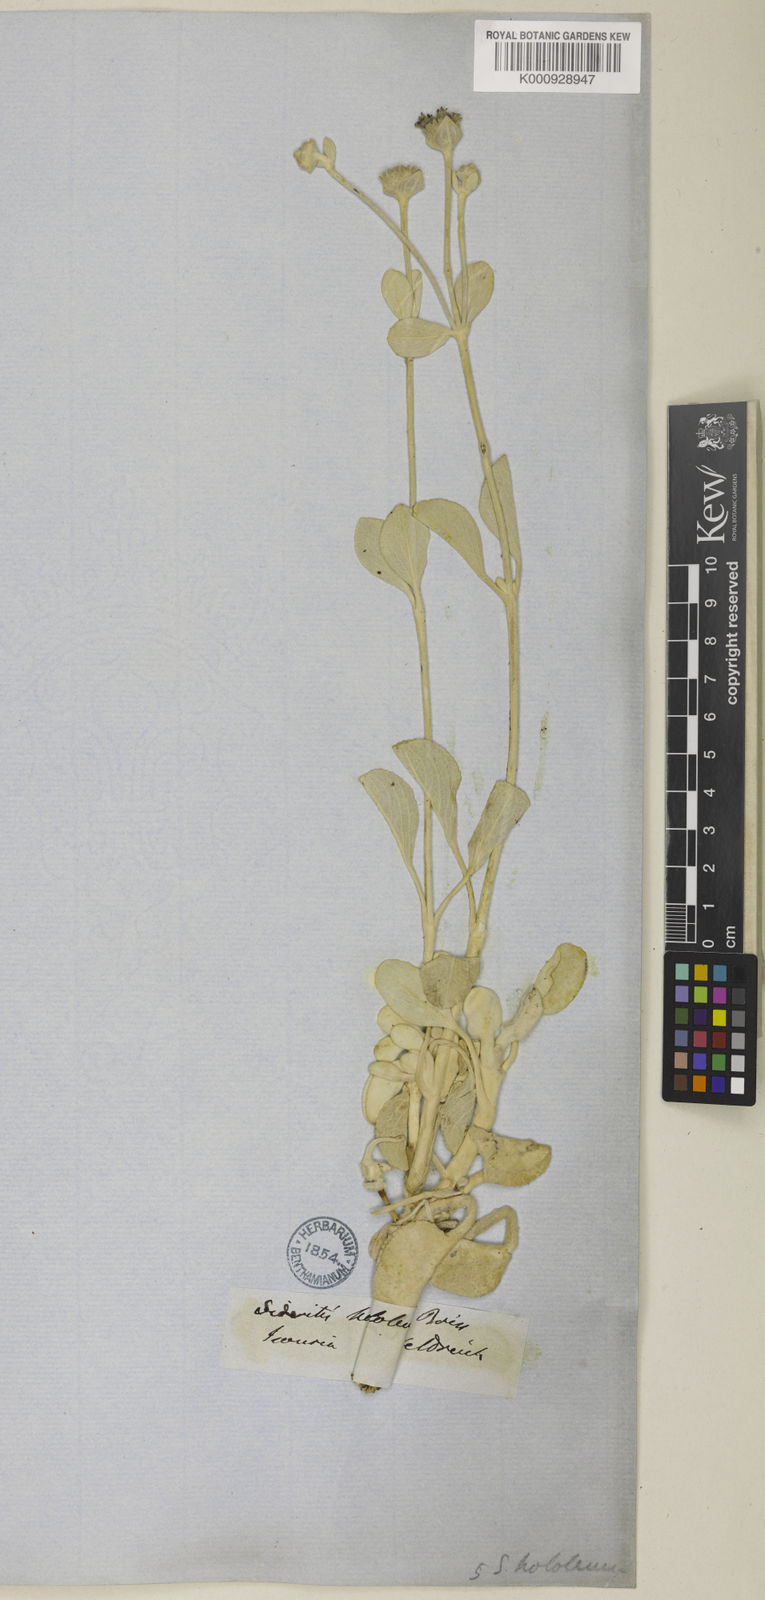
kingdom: Plantae
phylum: Tracheophyta
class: Magnoliopsida
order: Lamiales
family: Lamiaceae
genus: Sideritis
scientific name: Sideritis hololeuca
